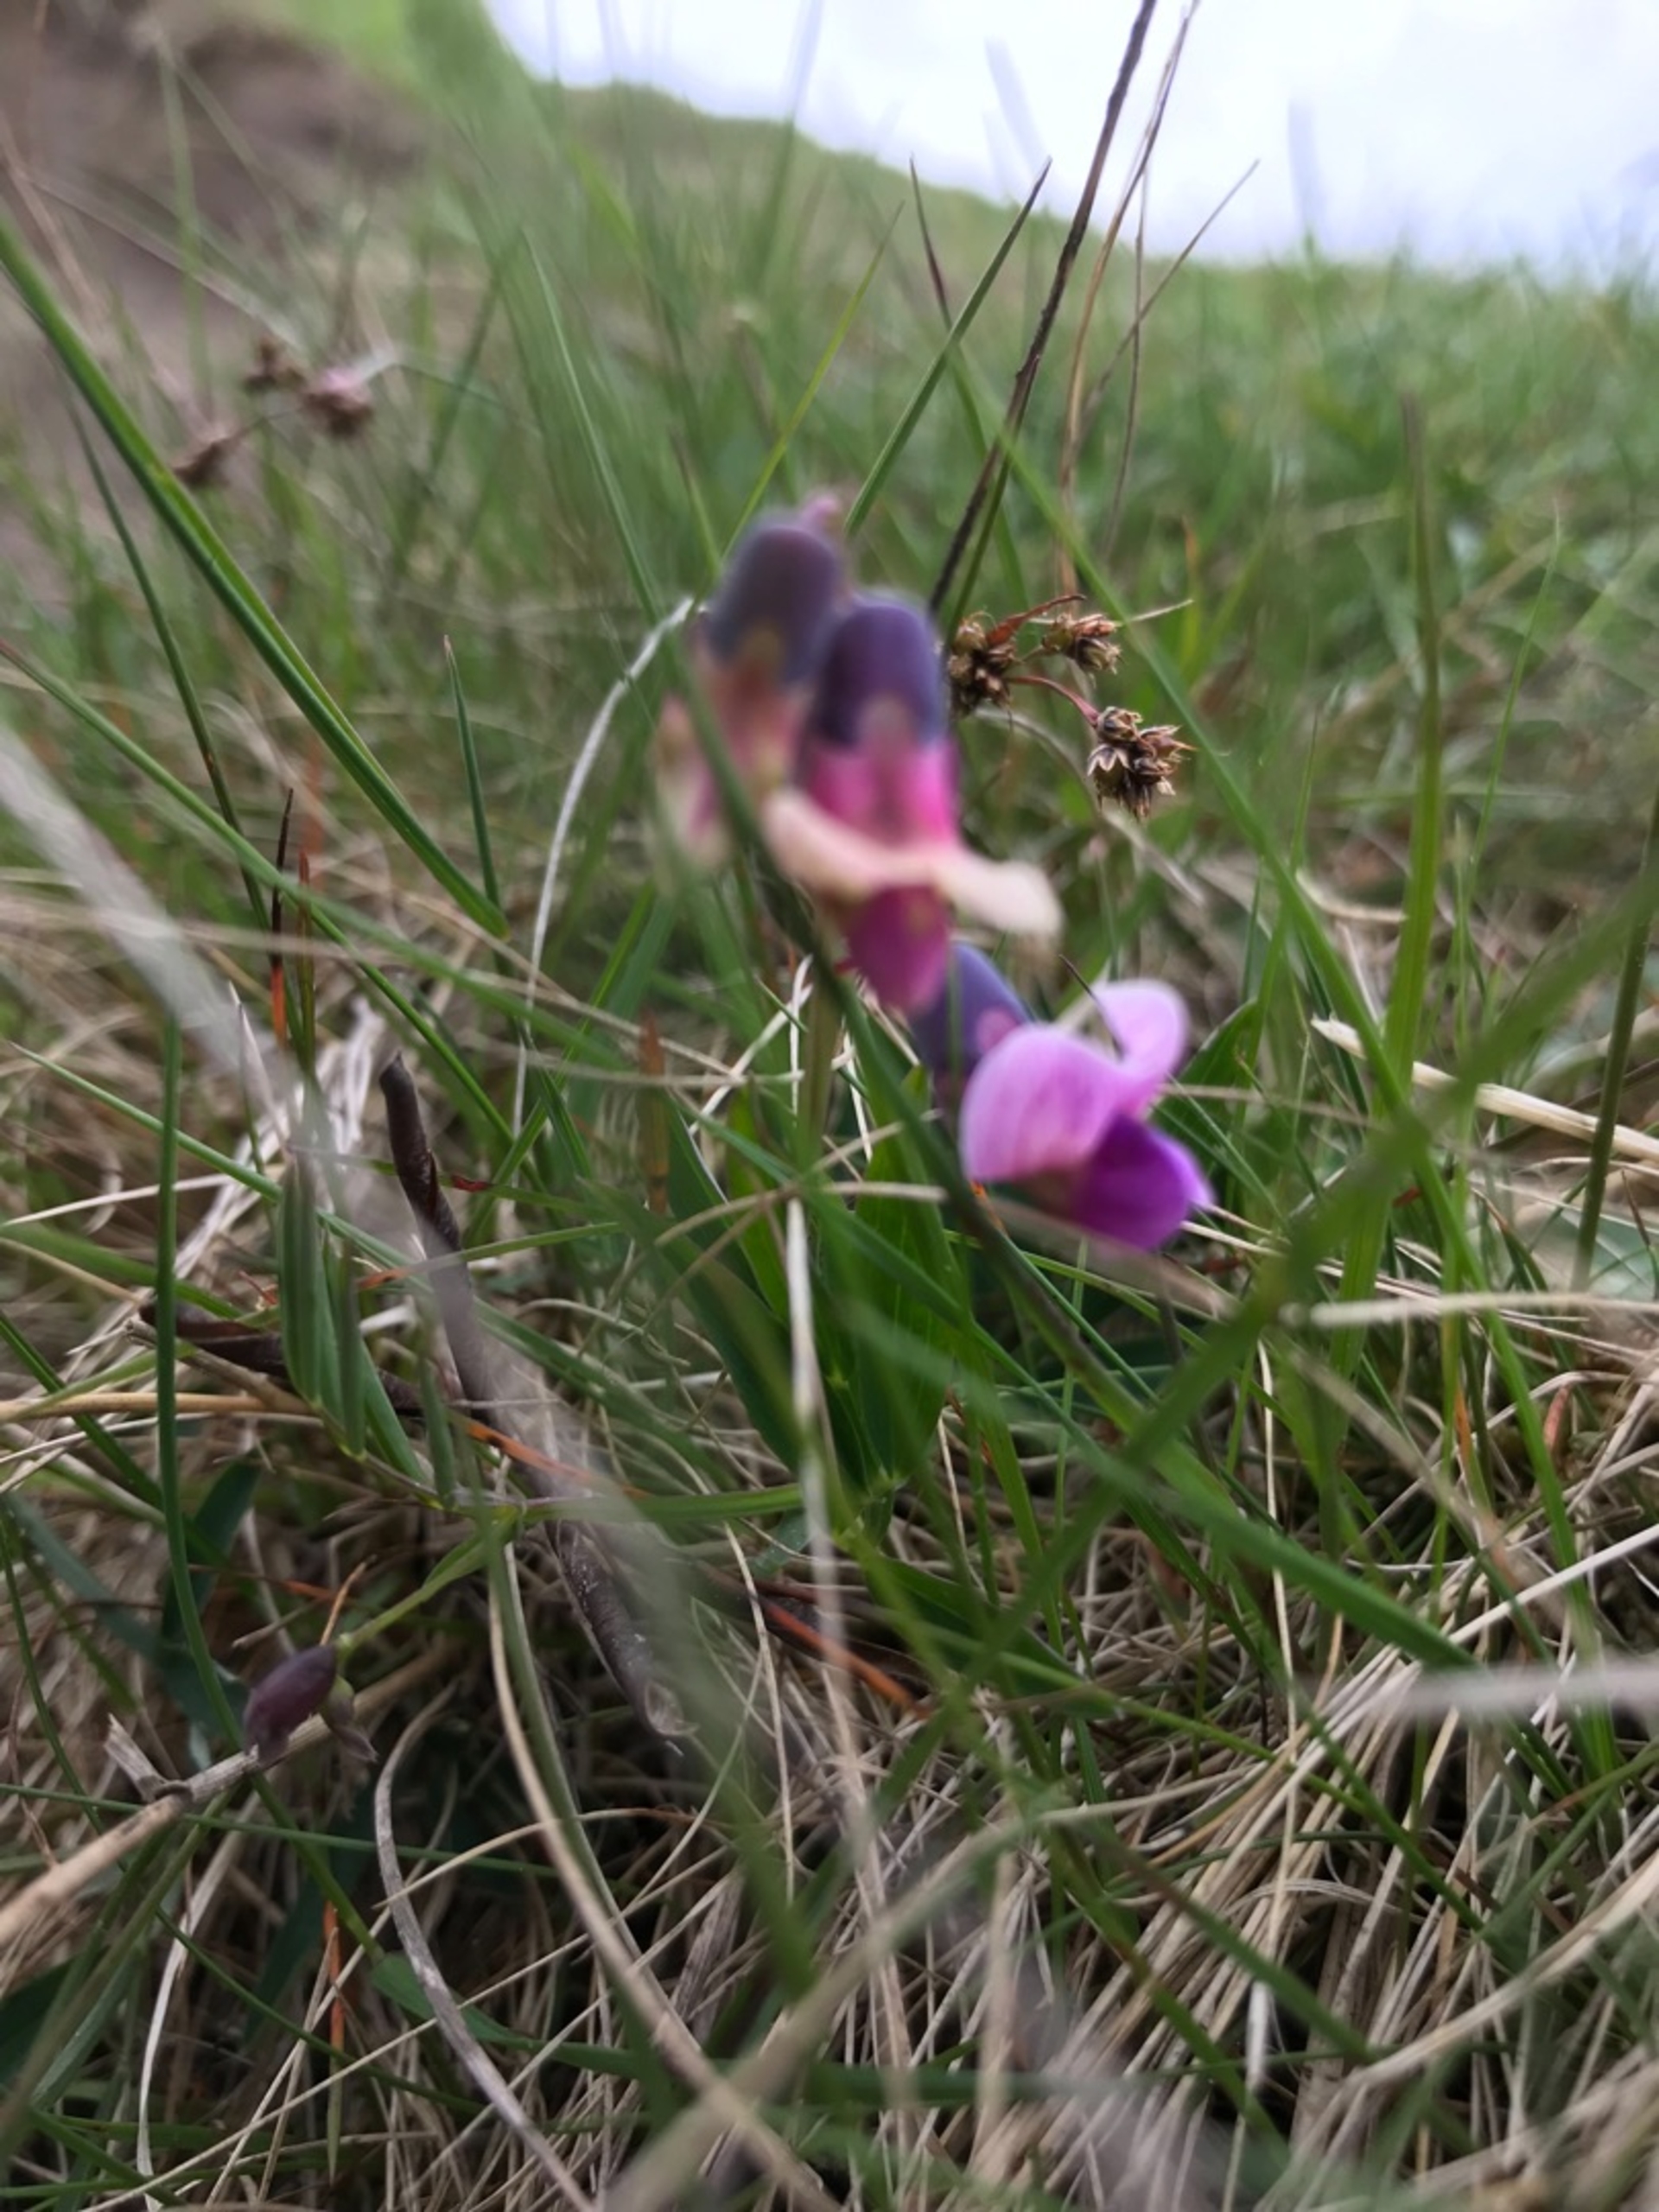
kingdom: Plantae
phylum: Tracheophyta
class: Magnoliopsida
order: Fabales
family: Fabaceae
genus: Lathyrus
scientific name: Lathyrus palustris
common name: Kær-fladbælg
